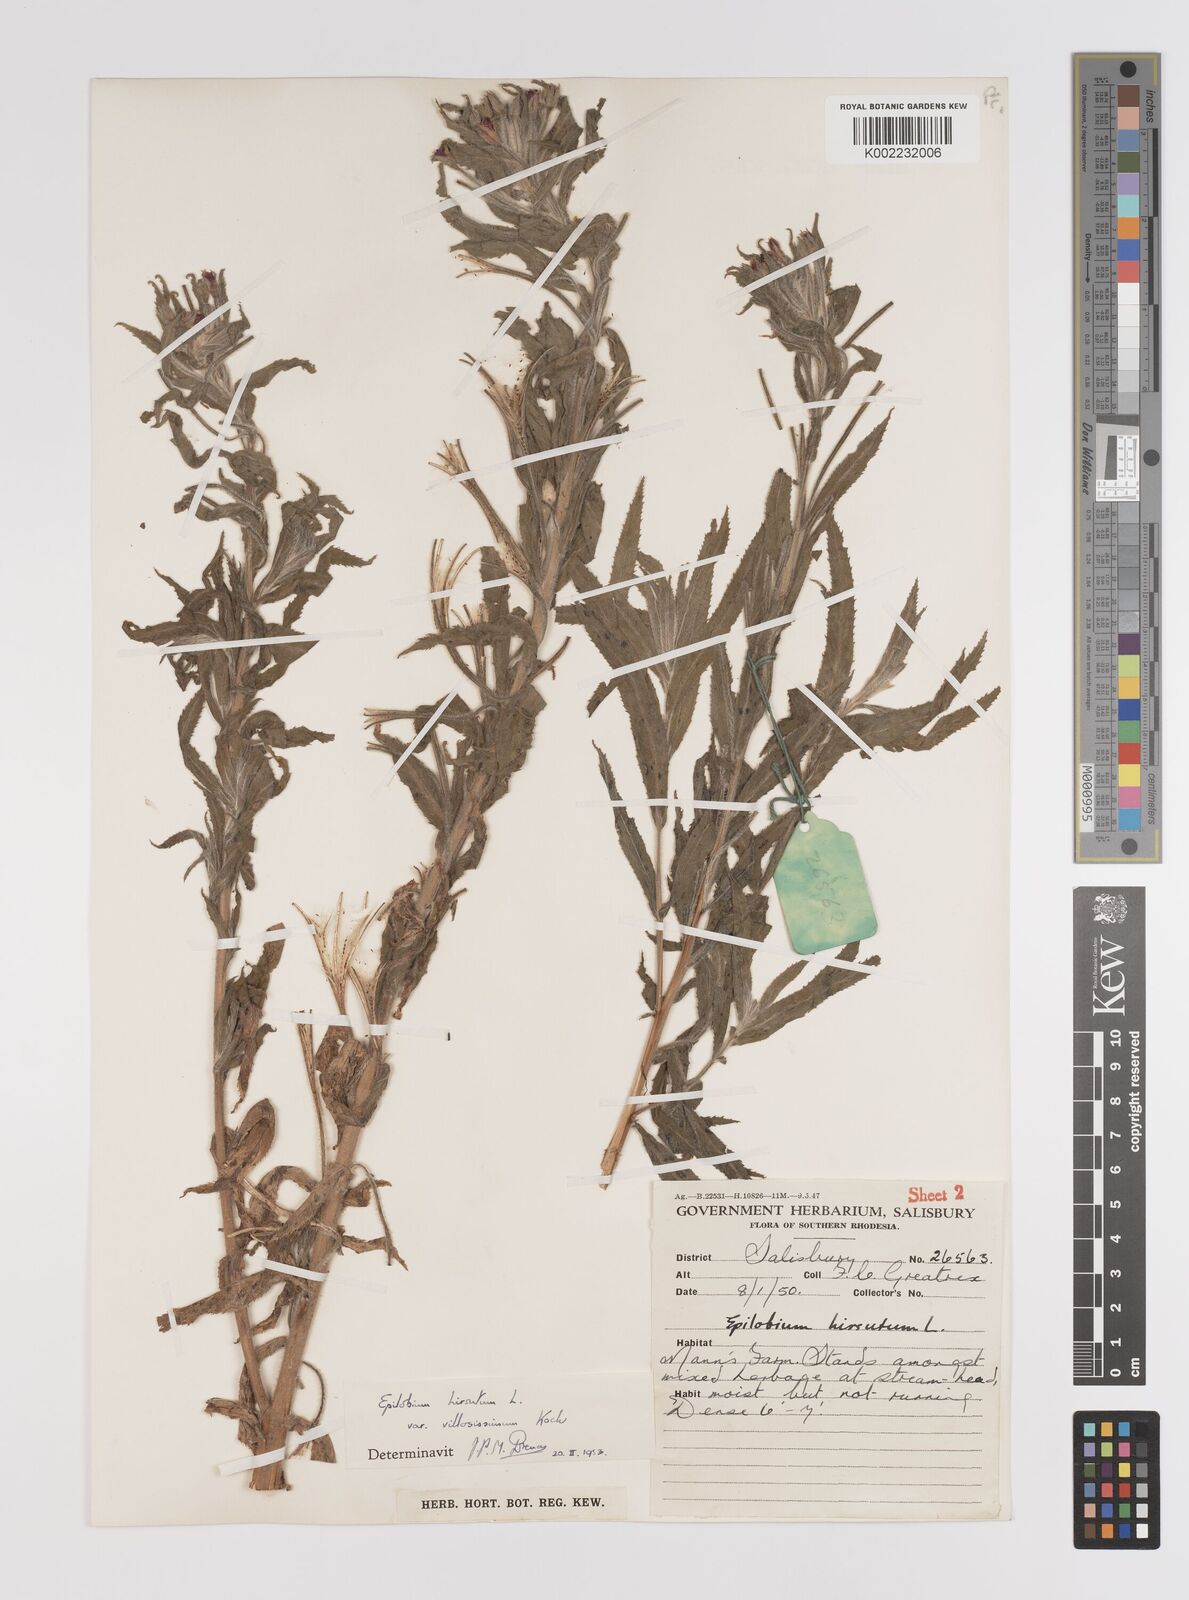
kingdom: Plantae
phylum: Tracheophyta
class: Magnoliopsida
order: Myrtales
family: Onagraceae
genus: Epilobium
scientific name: Epilobium hirsutum
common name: Great willowherb
